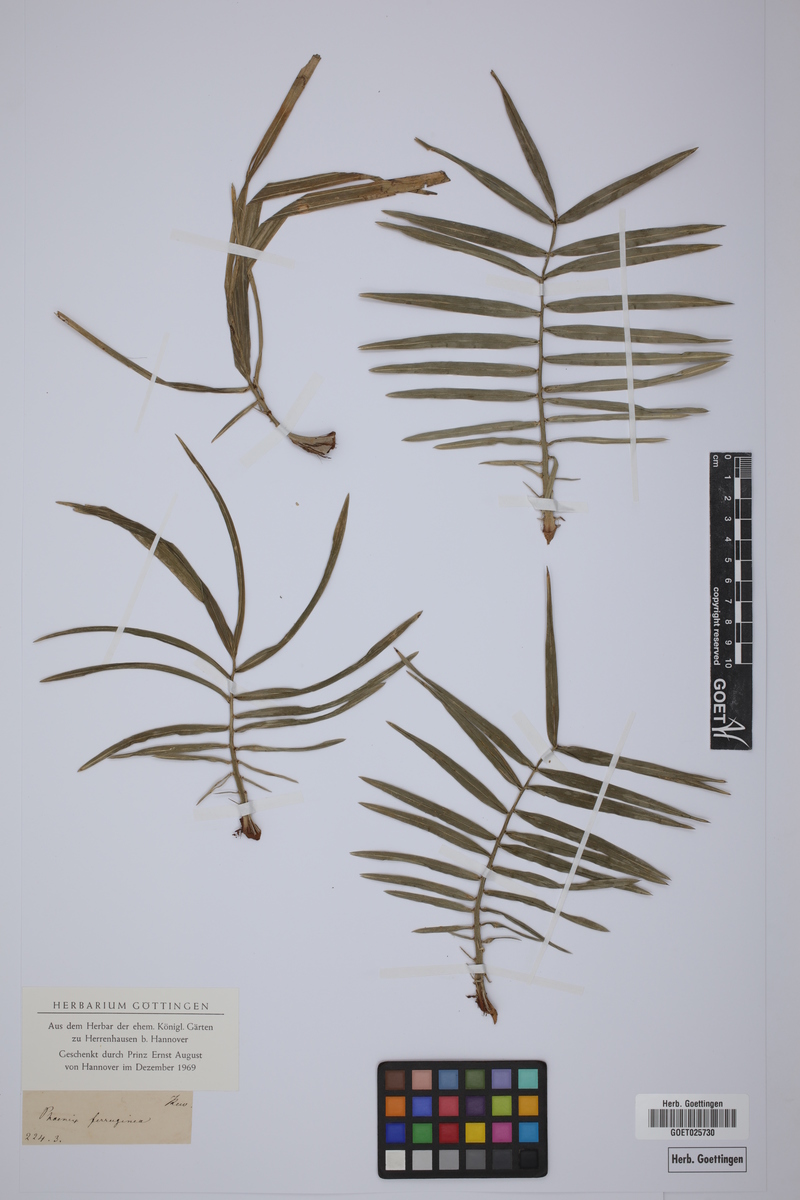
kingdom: Plantae
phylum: Tracheophyta
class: Liliopsida
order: Arecales
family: Arecaceae
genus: Phoenix
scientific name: Phoenix ferruginea
